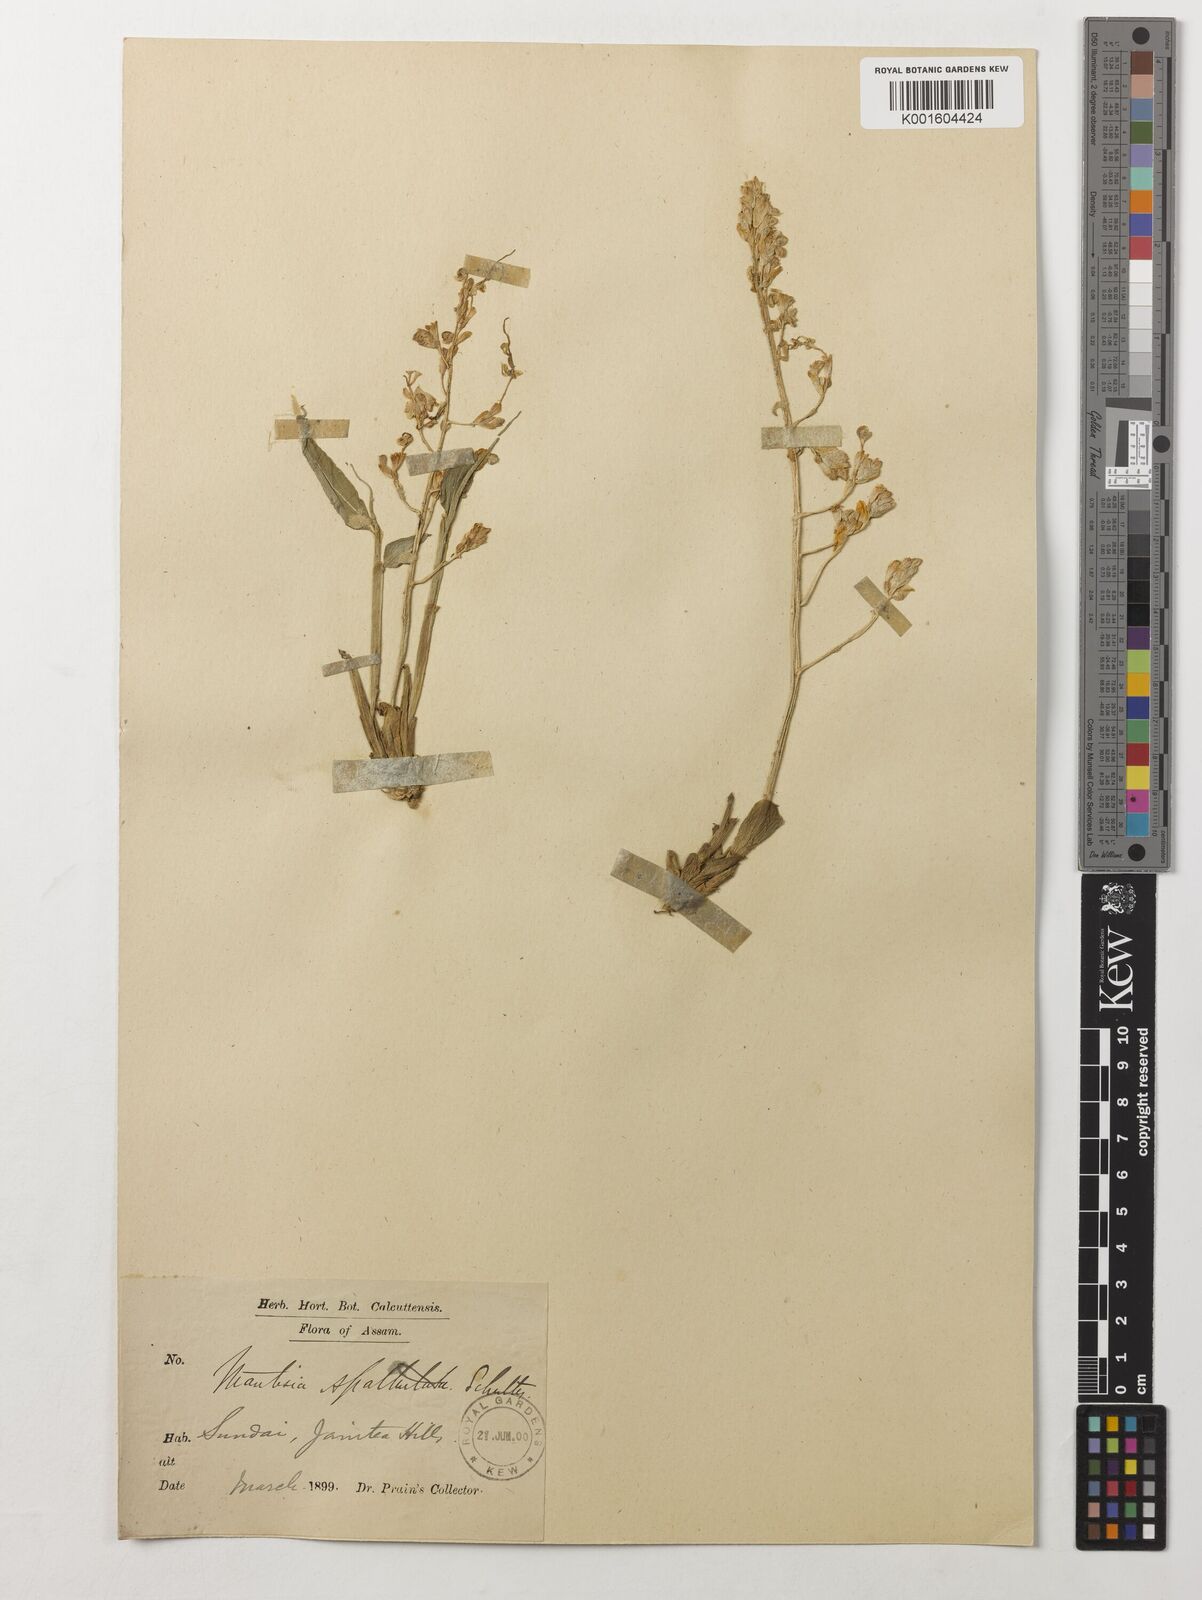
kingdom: Plantae
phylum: Tracheophyta
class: Liliopsida
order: Zingiberales
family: Zingiberaceae
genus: Globba
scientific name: Globba spathulata
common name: Dancing girl flower
